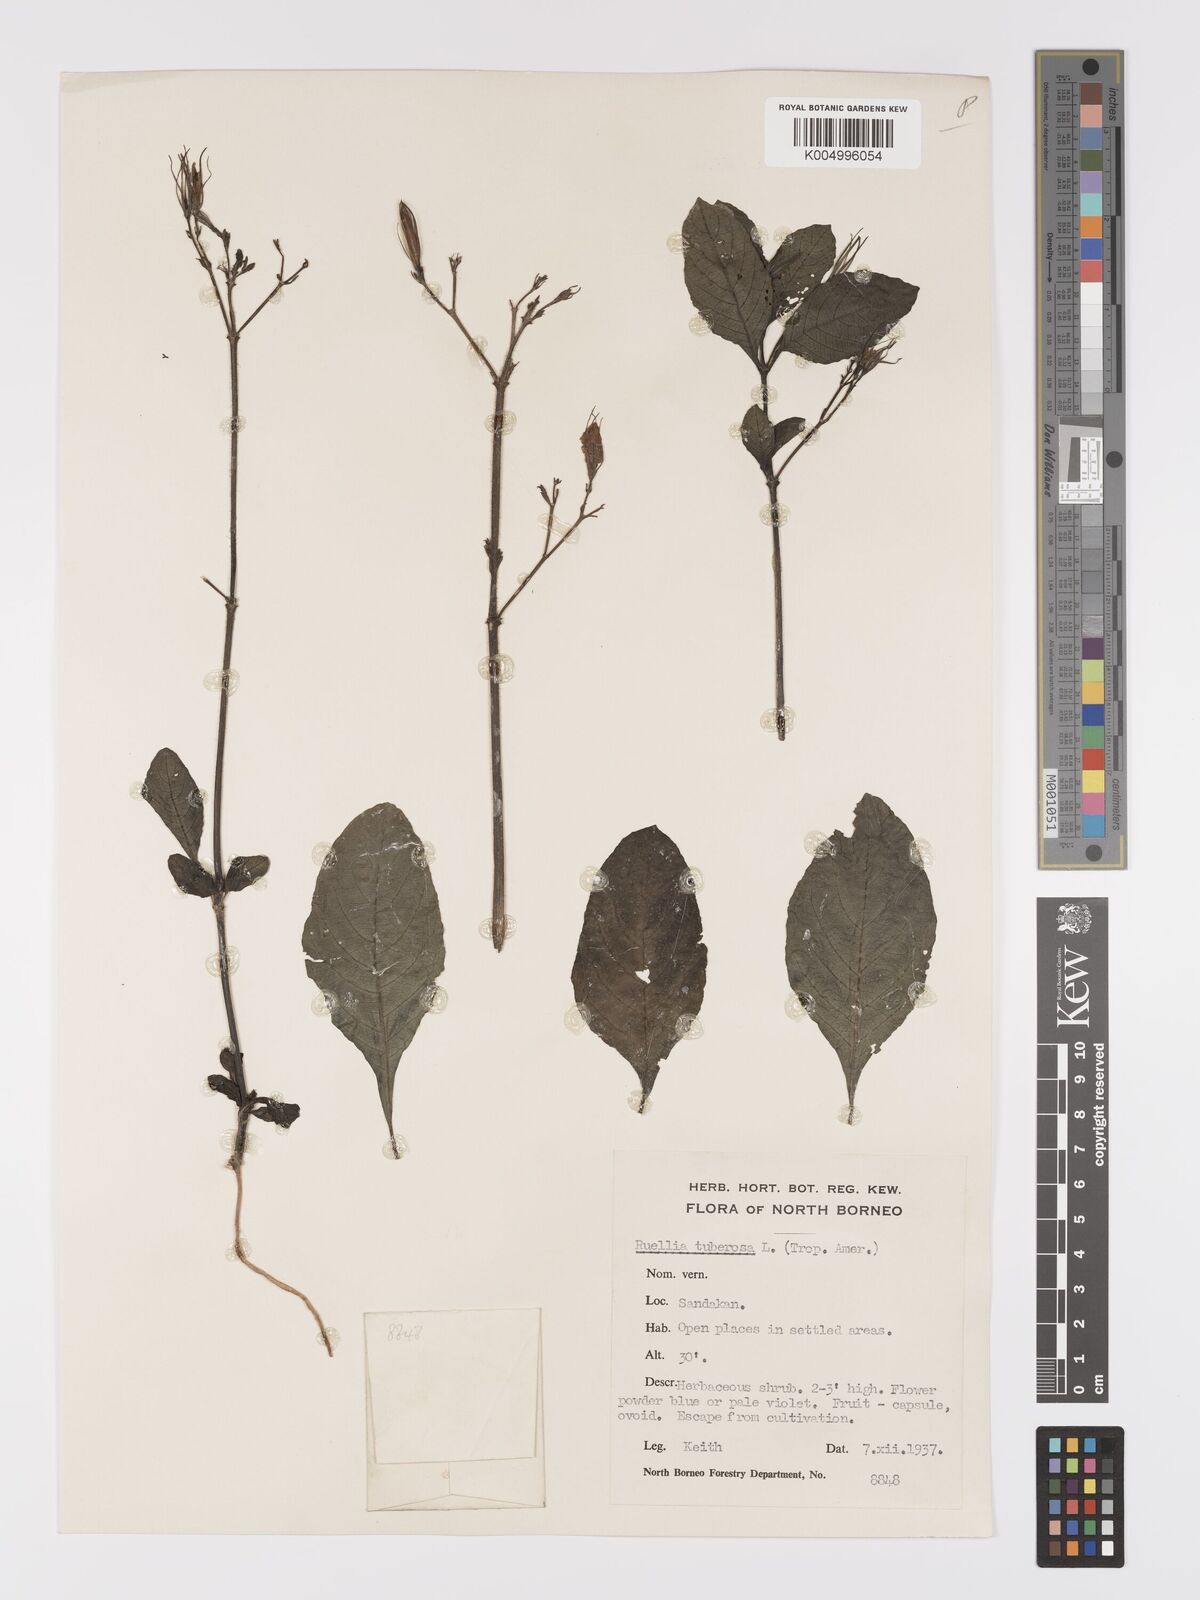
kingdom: Plantae
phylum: Tracheophyta
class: Magnoliopsida
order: Lamiales
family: Acanthaceae
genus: Ruellia
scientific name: Ruellia tuberosa
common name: Devil's bit
